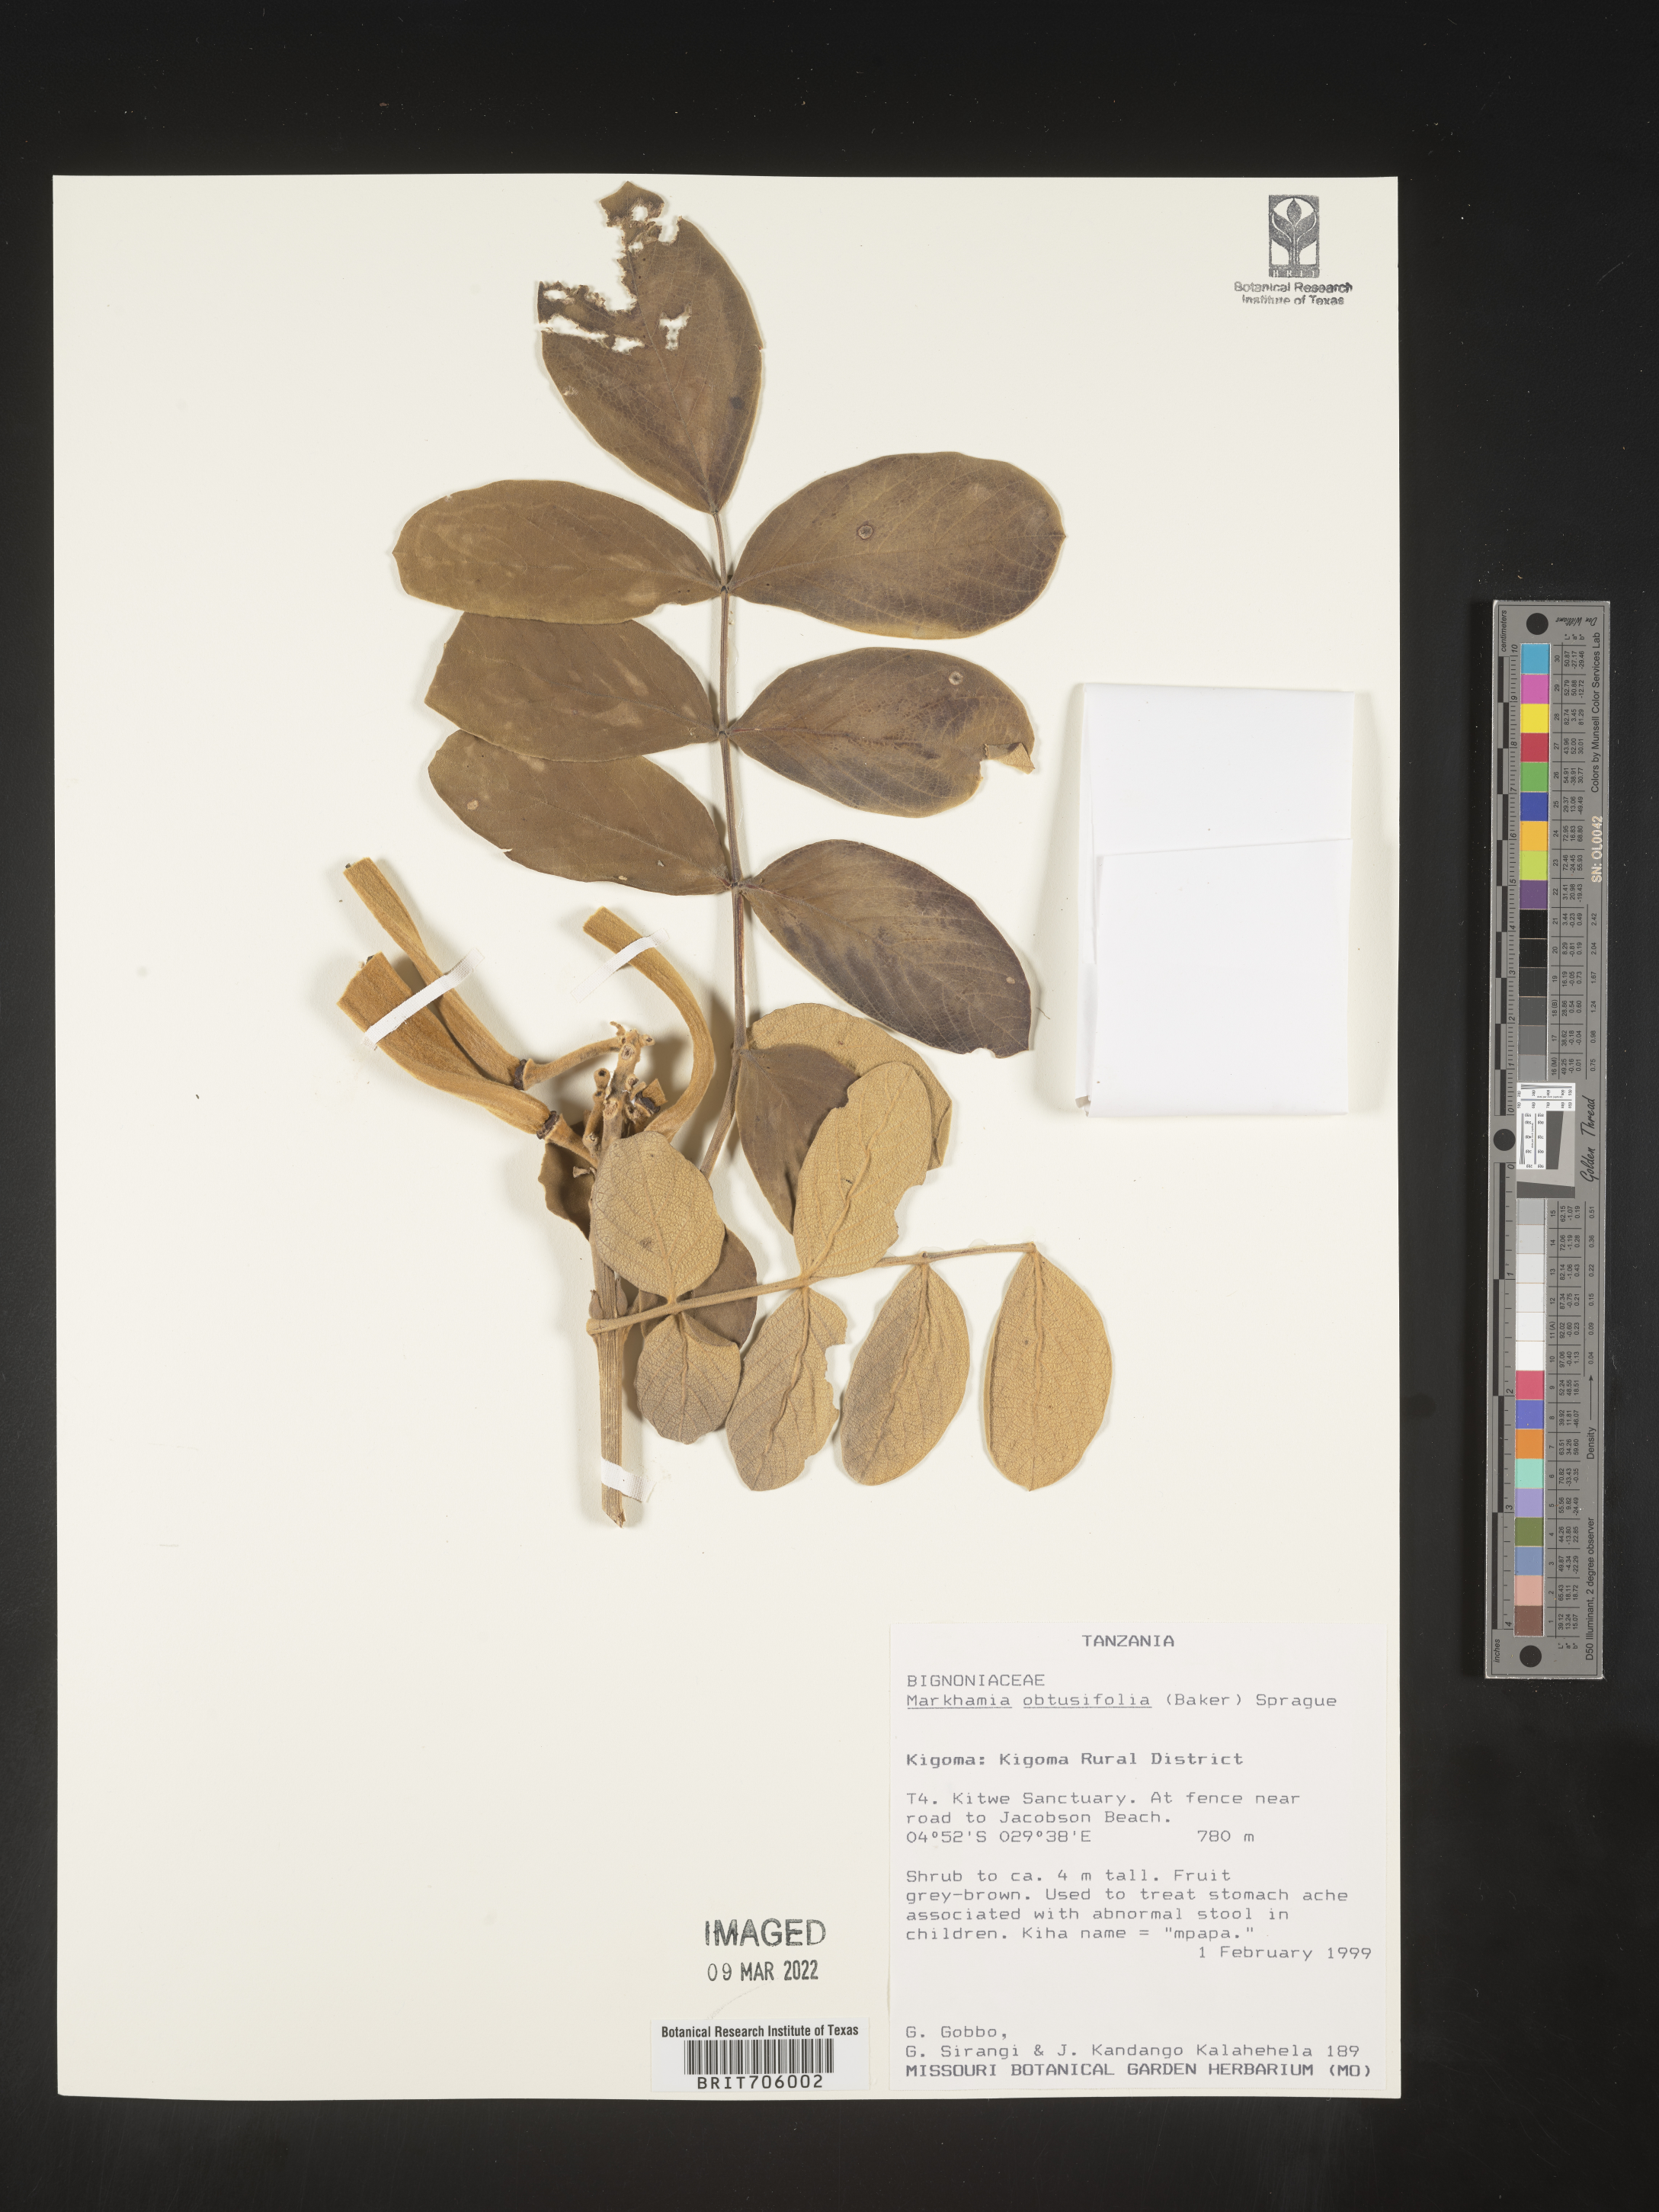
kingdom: Plantae
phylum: Tracheophyta
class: Magnoliopsida
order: Lamiales
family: Bignoniaceae
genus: Markhamia
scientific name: Markhamia
